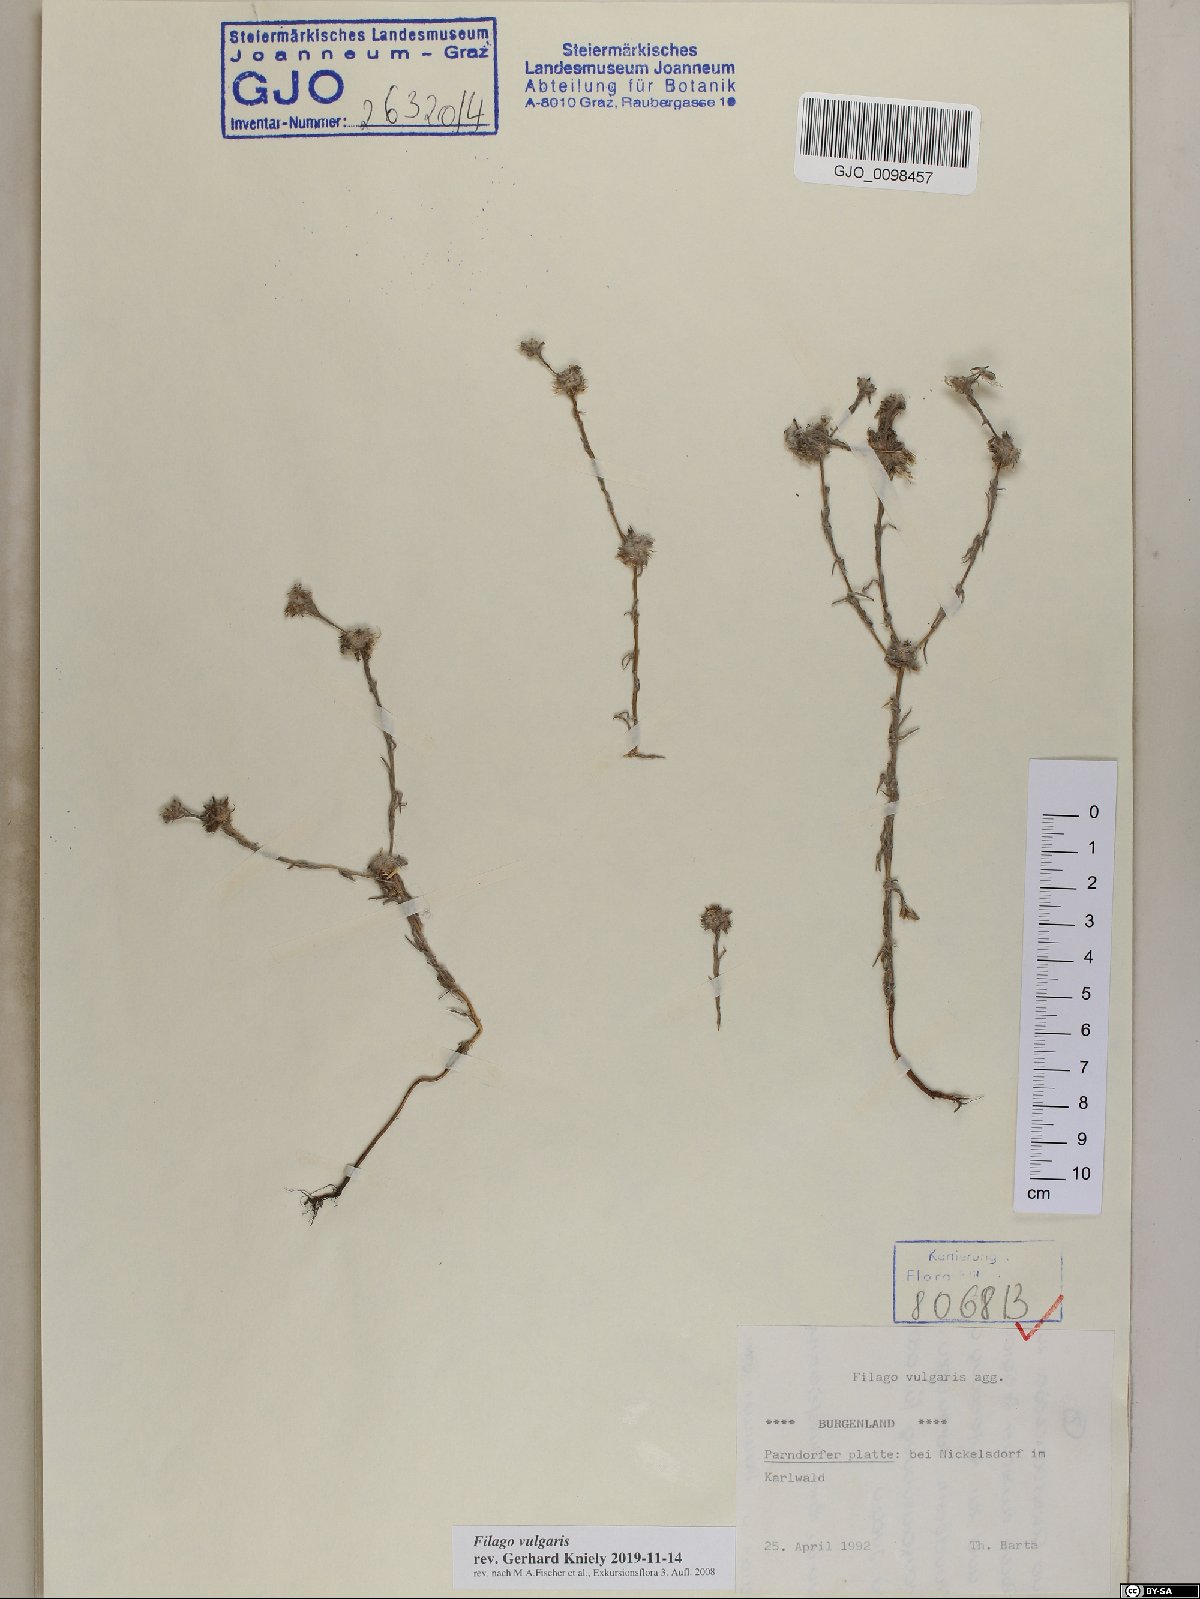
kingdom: Plantae
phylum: Tracheophyta
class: Magnoliopsida
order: Asterales
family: Asteraceae
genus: Filago
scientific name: Filago germanica
